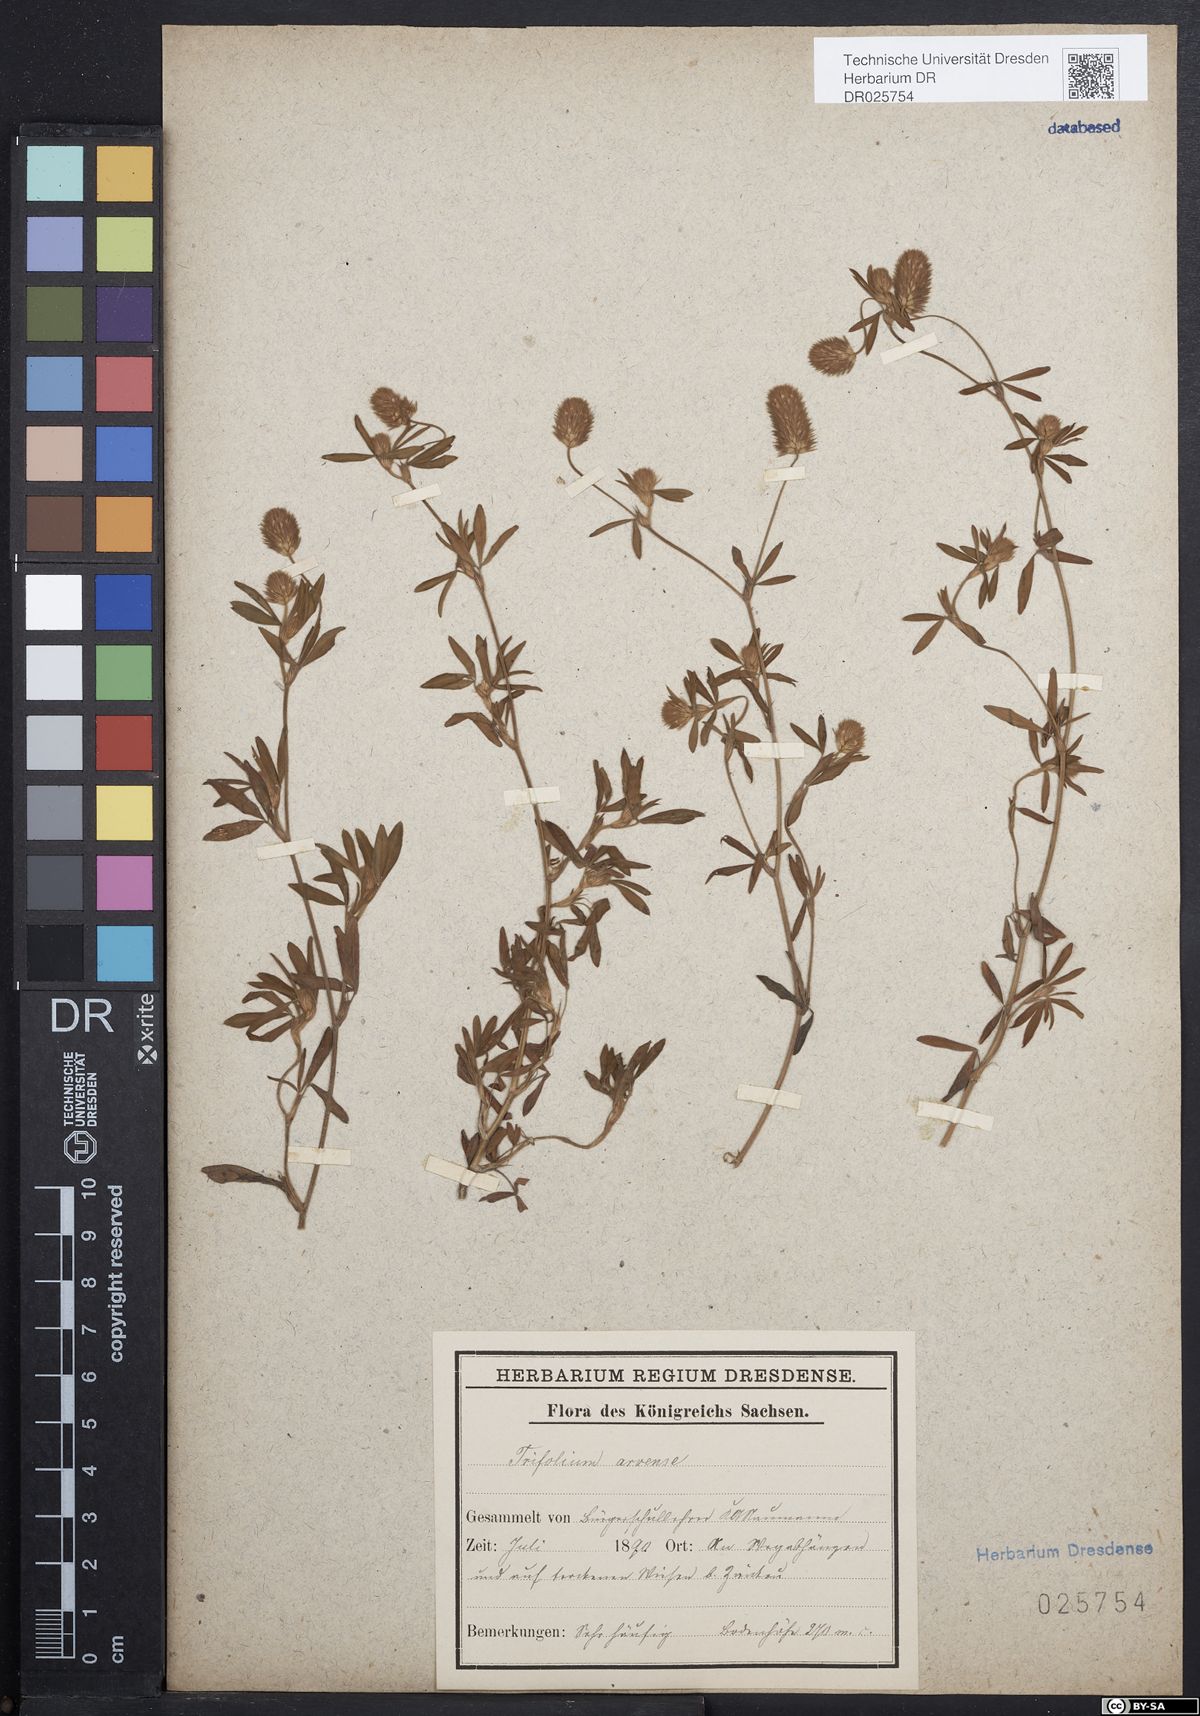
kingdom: Plantae
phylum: Tracheophyta
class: Magnoliopsida
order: Fabales
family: Fabaceae
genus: Trifolium
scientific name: Trifolium arvense
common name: Hare's-foot clover
